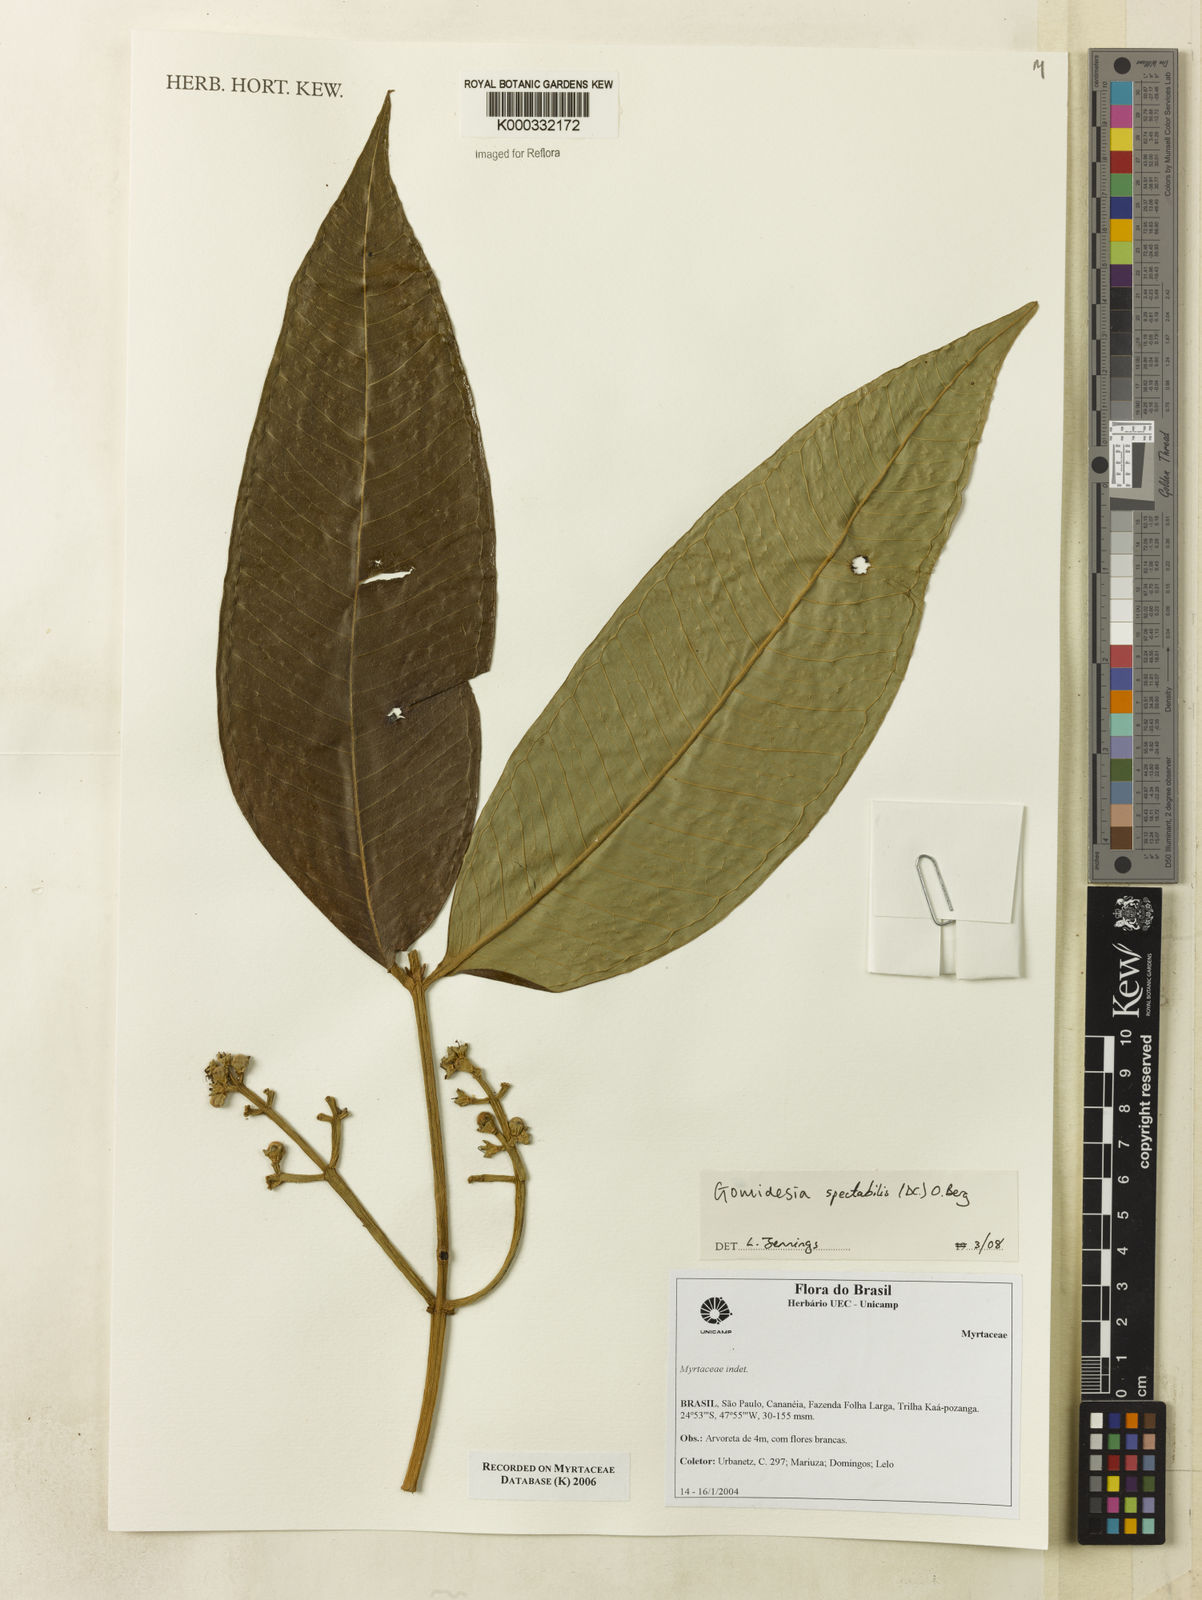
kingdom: Plantae
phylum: Tracheophyta
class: Magnoliopsida
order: Myrtales
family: Myrtaceae
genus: Myrcia
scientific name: Myrcia
